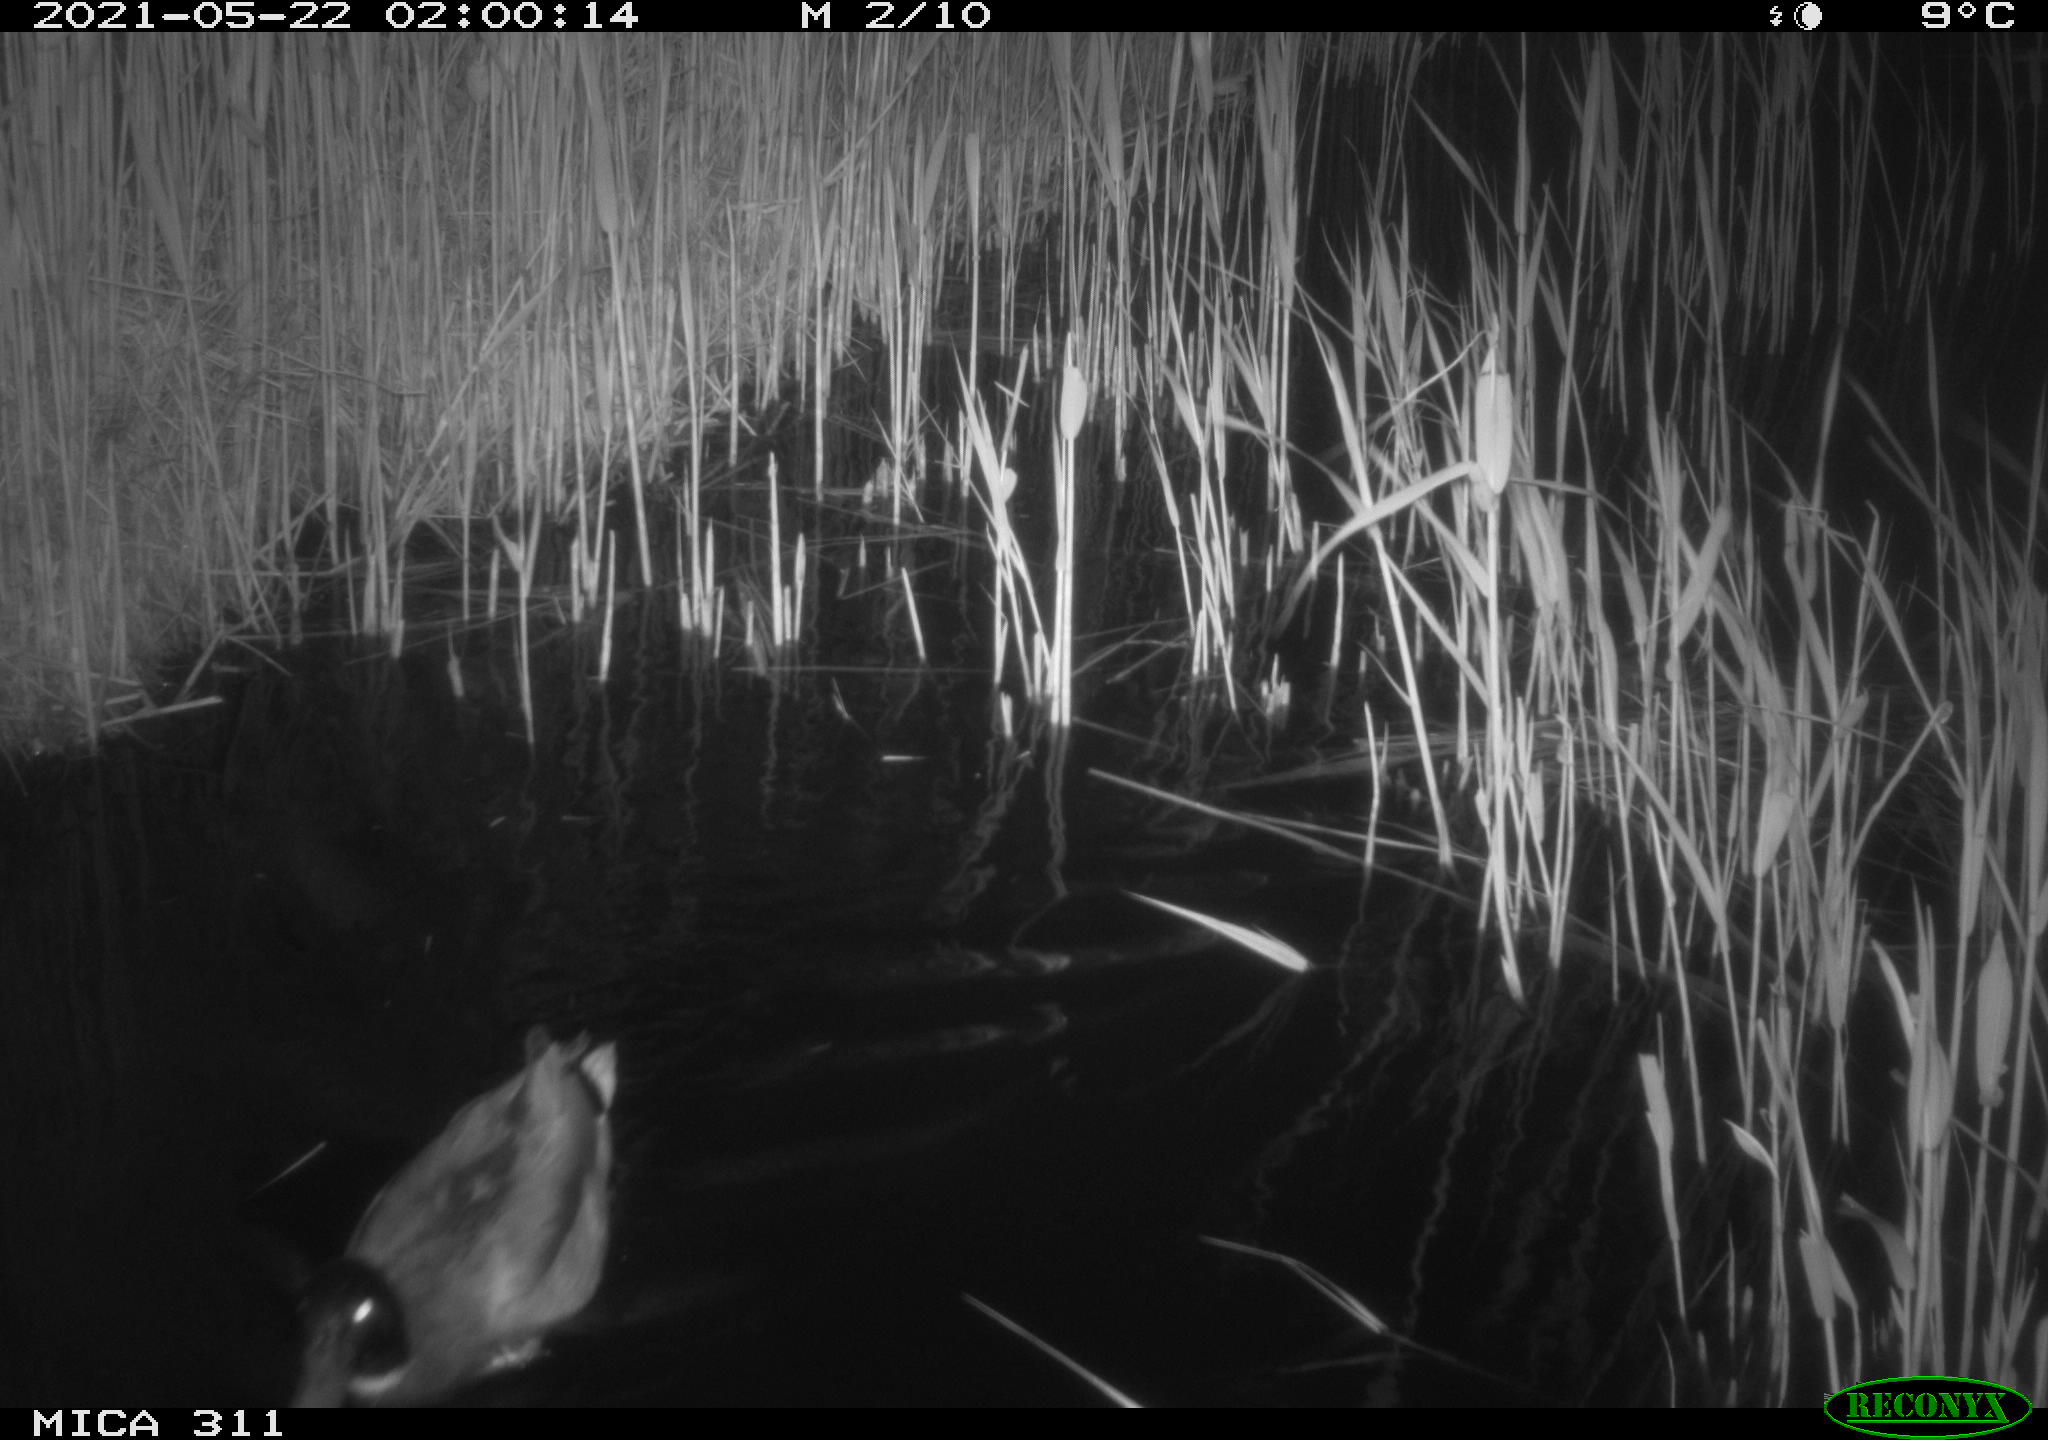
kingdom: Animalia
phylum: Chordata
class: Aves
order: Anseriformes
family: Anatidae
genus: Anas
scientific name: Anas
